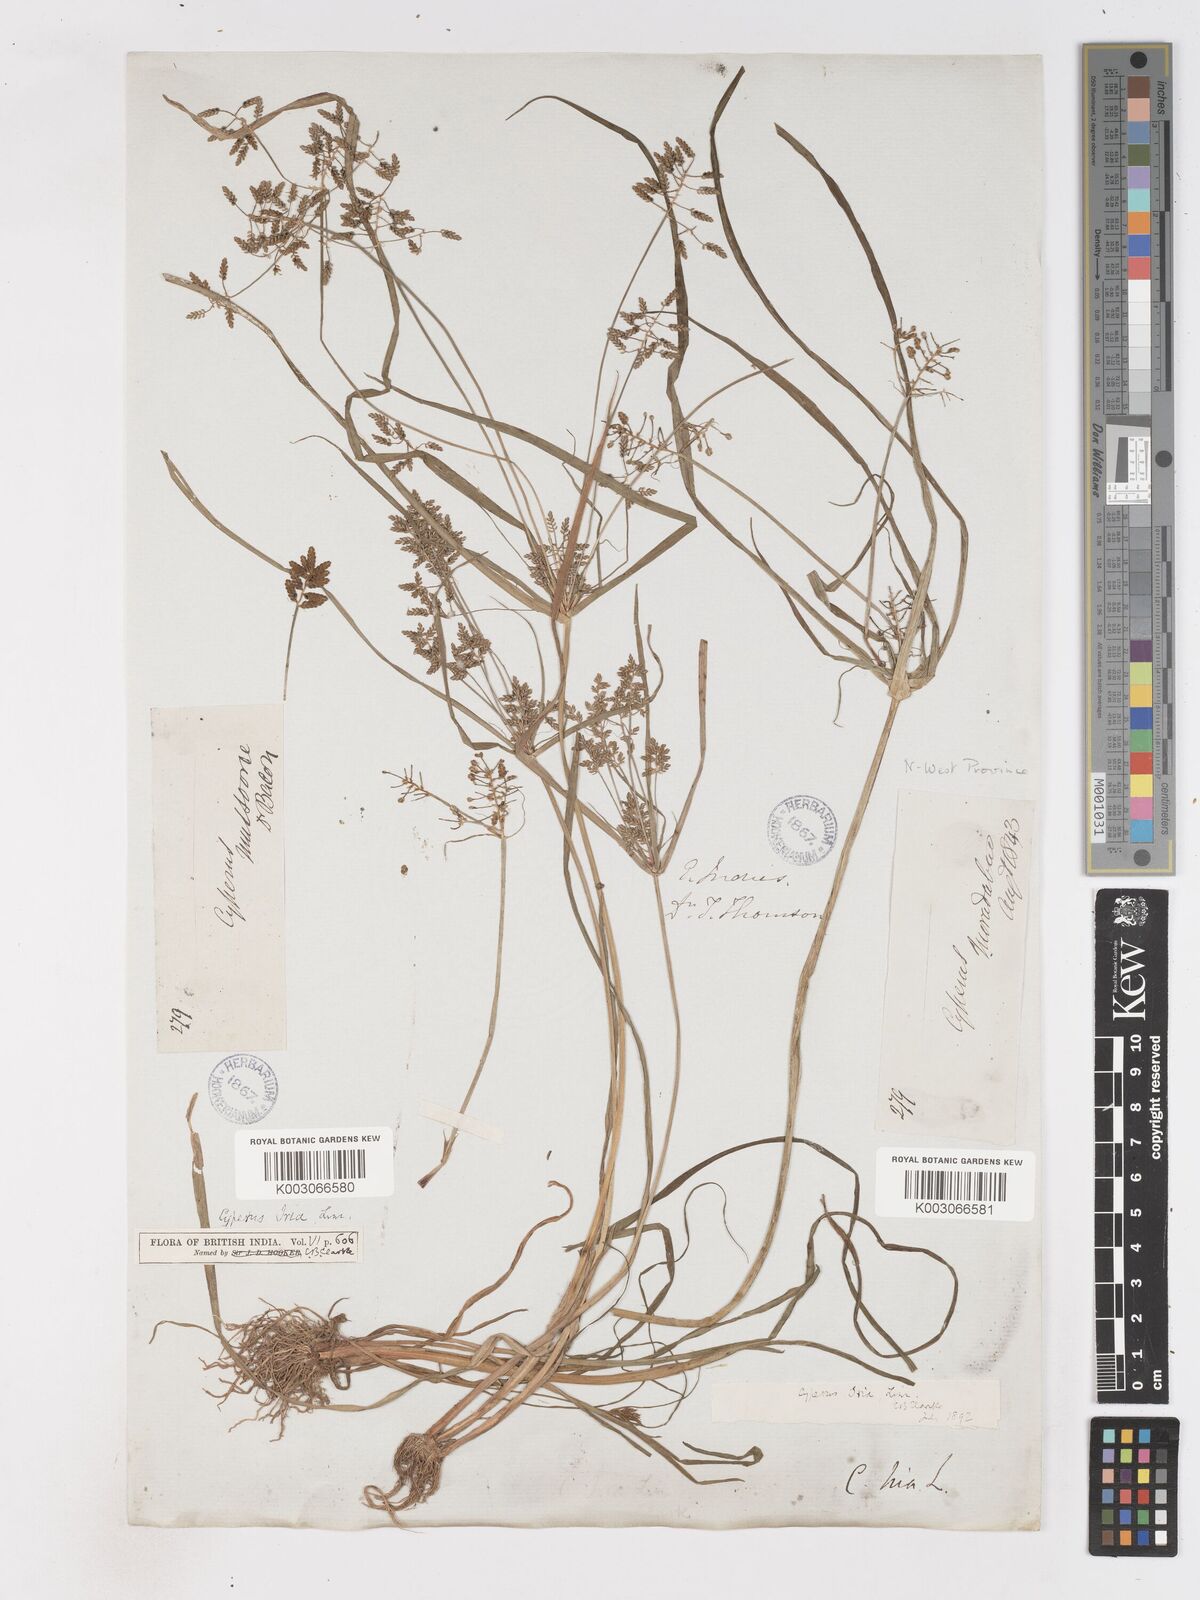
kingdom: Plantae
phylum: Tracheophyta
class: Liliopsida
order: Poales
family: Cyperaceae
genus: Cyperus
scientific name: Cyperus alulatus
